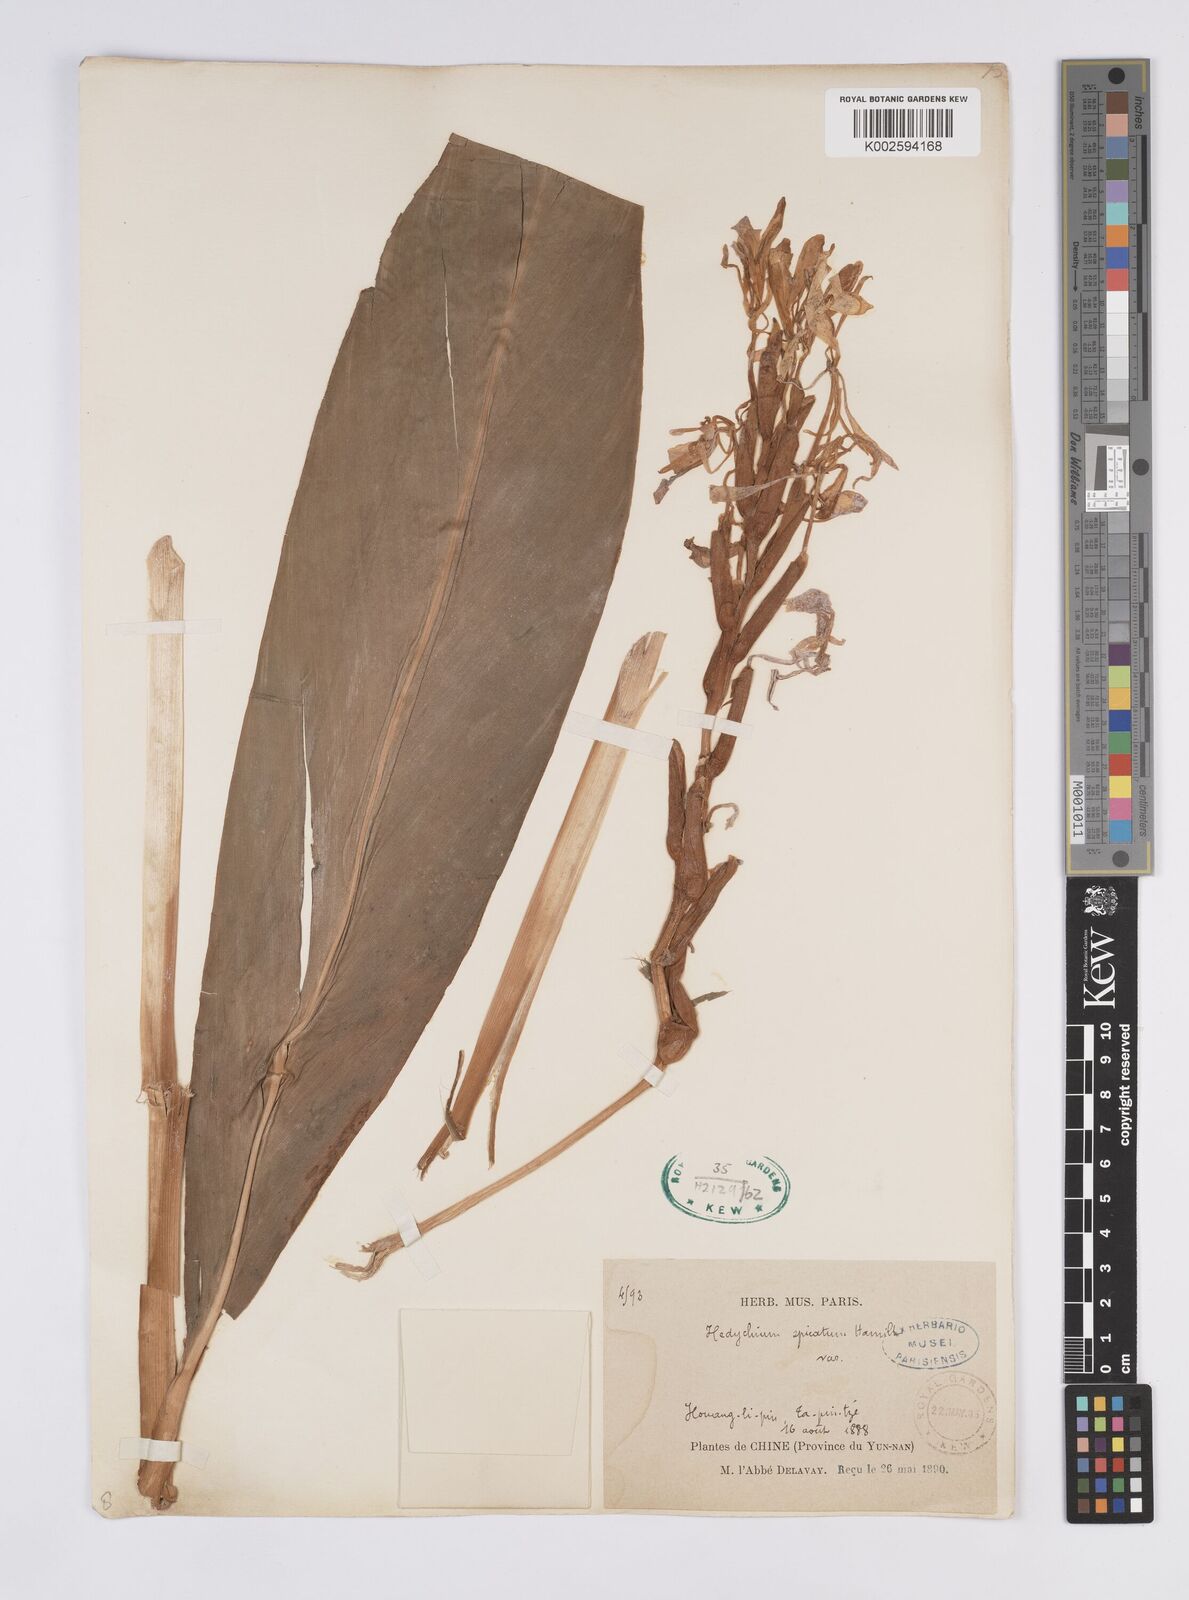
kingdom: Plantae
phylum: Tracheophyta
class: Liliopsida
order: Zingiberales
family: Zingiberaceae
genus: Hedychium
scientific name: Hedychium
